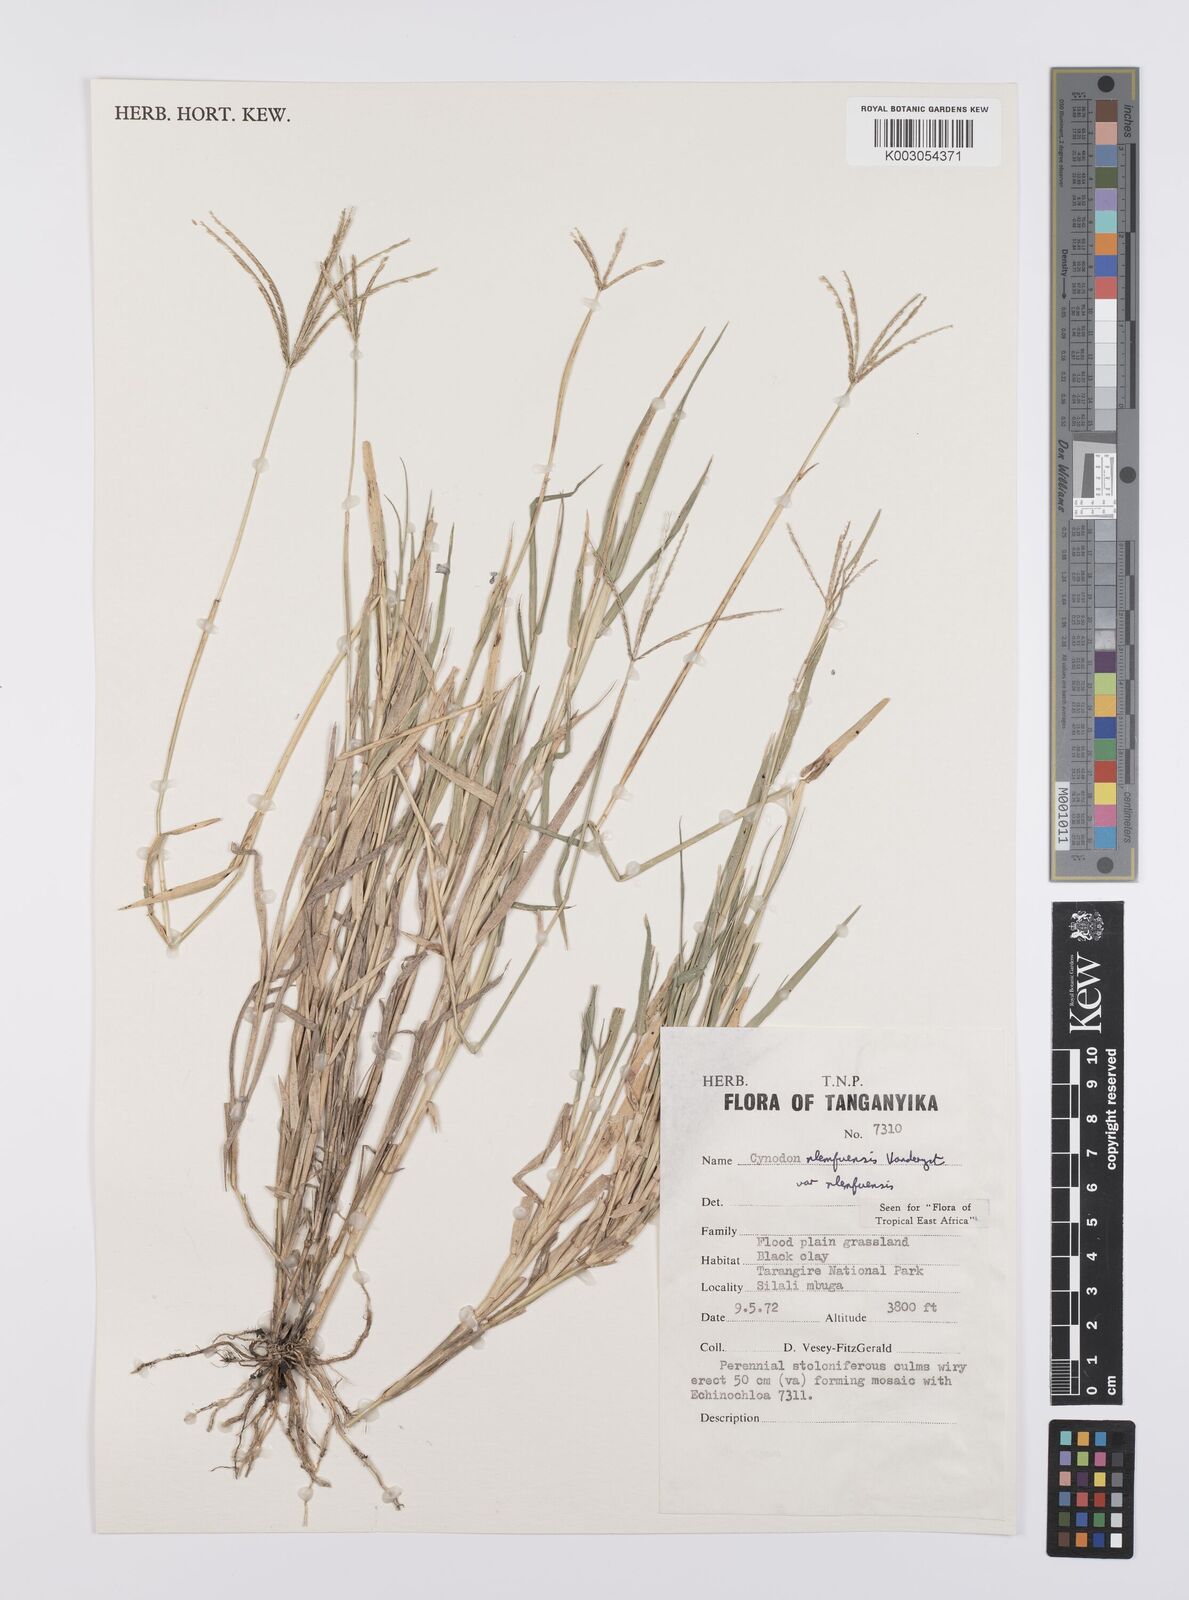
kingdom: Plantae
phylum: Tracheophyta
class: Liliopsida
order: Poales
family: Poaceae
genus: Cynodon
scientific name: Cynodon nlemfuensis
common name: African bermudagrass
